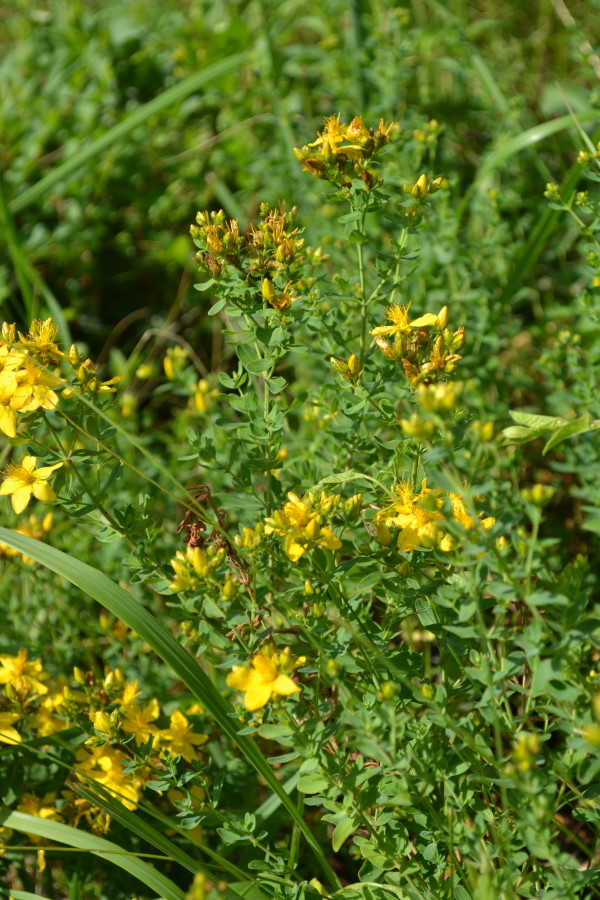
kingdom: Plantae
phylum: Tracheophyta
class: Magnoliopsida
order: Malpighiales
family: Hypericaceae
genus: Hypericum
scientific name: Hypericum perforatum
